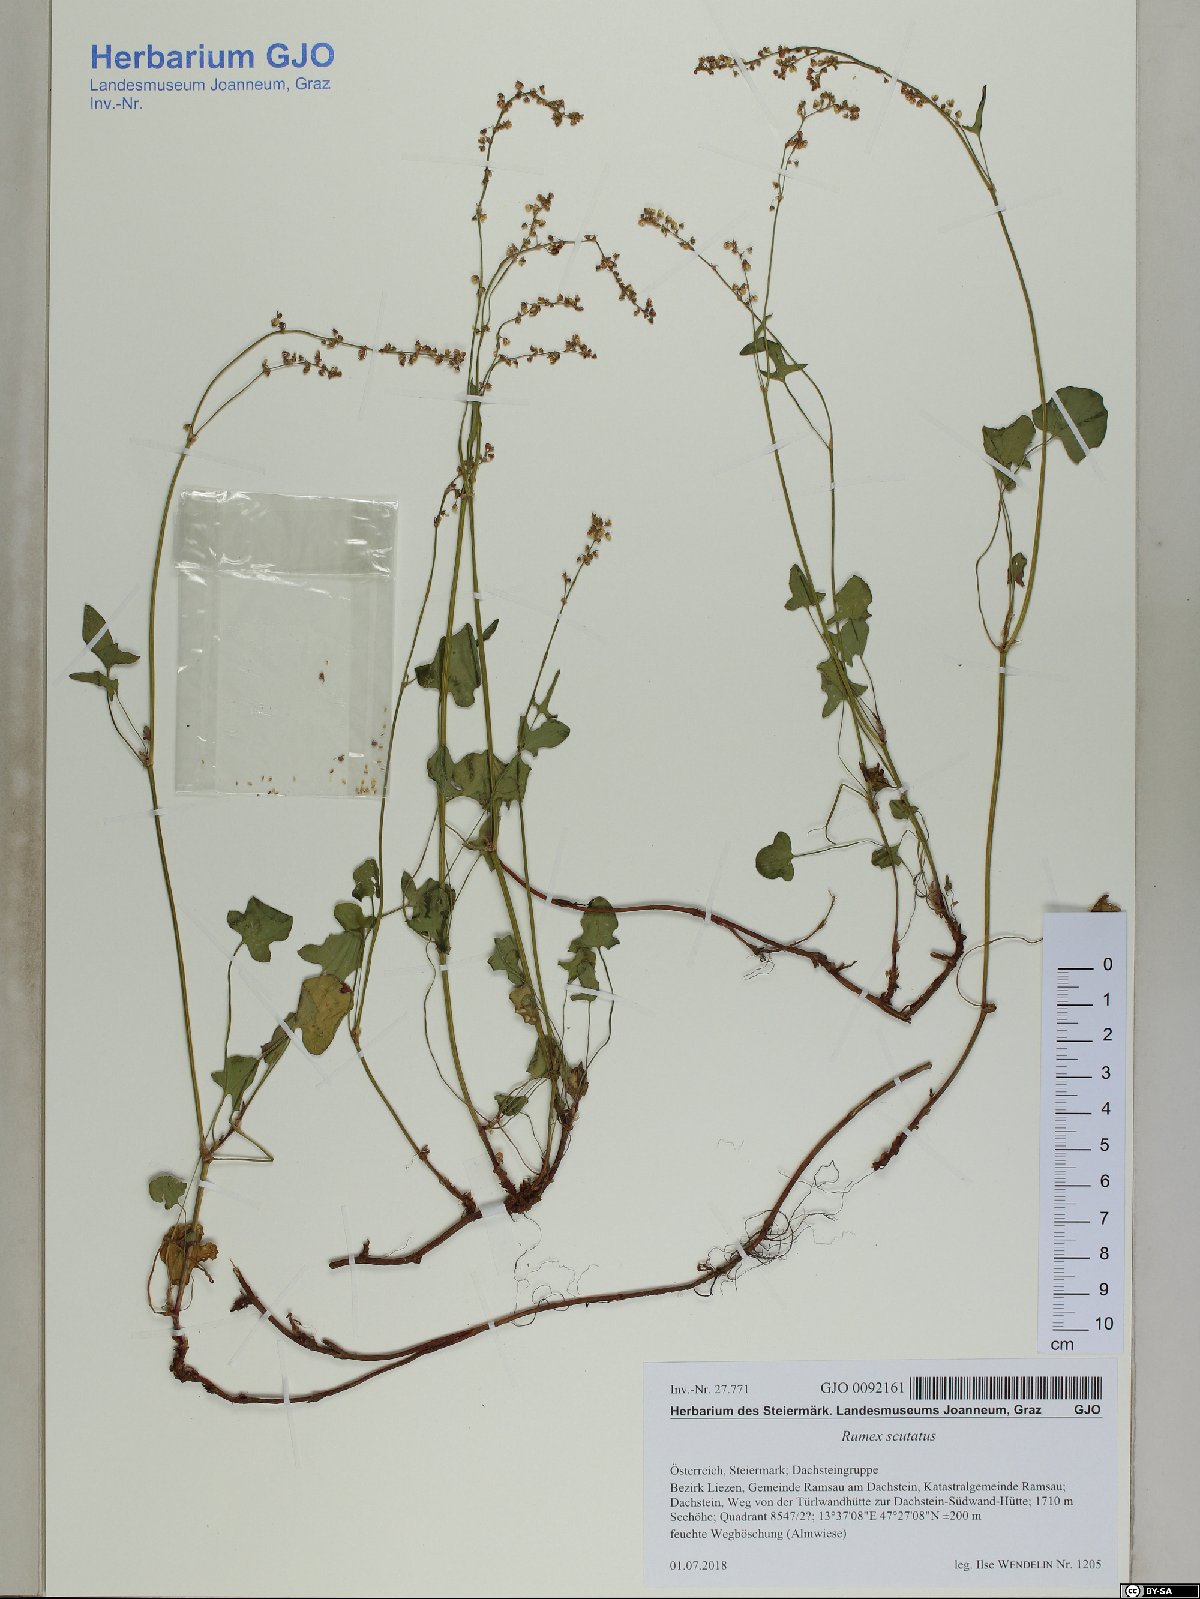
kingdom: Plantae
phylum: Tracheophyta
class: Magnoliopsida
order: Caryophyllales
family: Polygonaceae
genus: Rumex
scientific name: Rumex scutatus
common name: French sorrel
